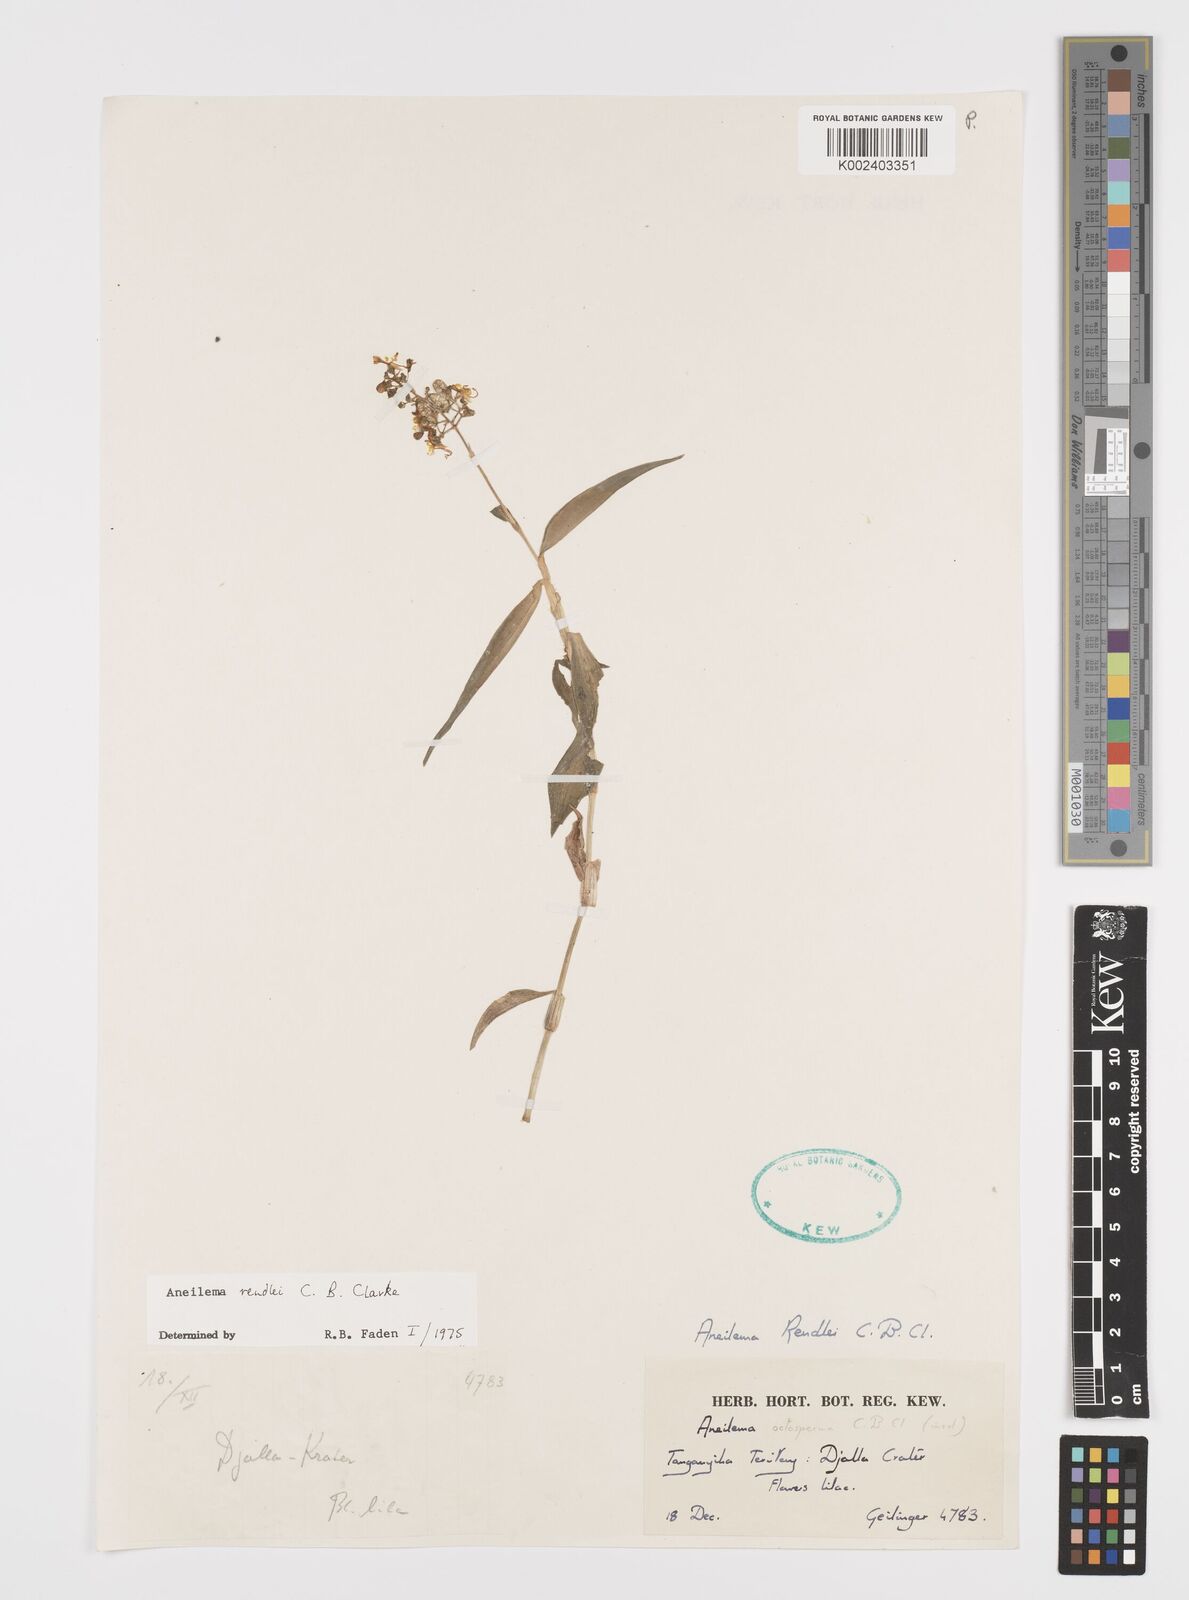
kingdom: Plantae
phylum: Tracheophyta
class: Liliopsida
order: Commelinales
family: Commelinaceae
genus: Aneilema
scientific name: Aneilema rendlei
